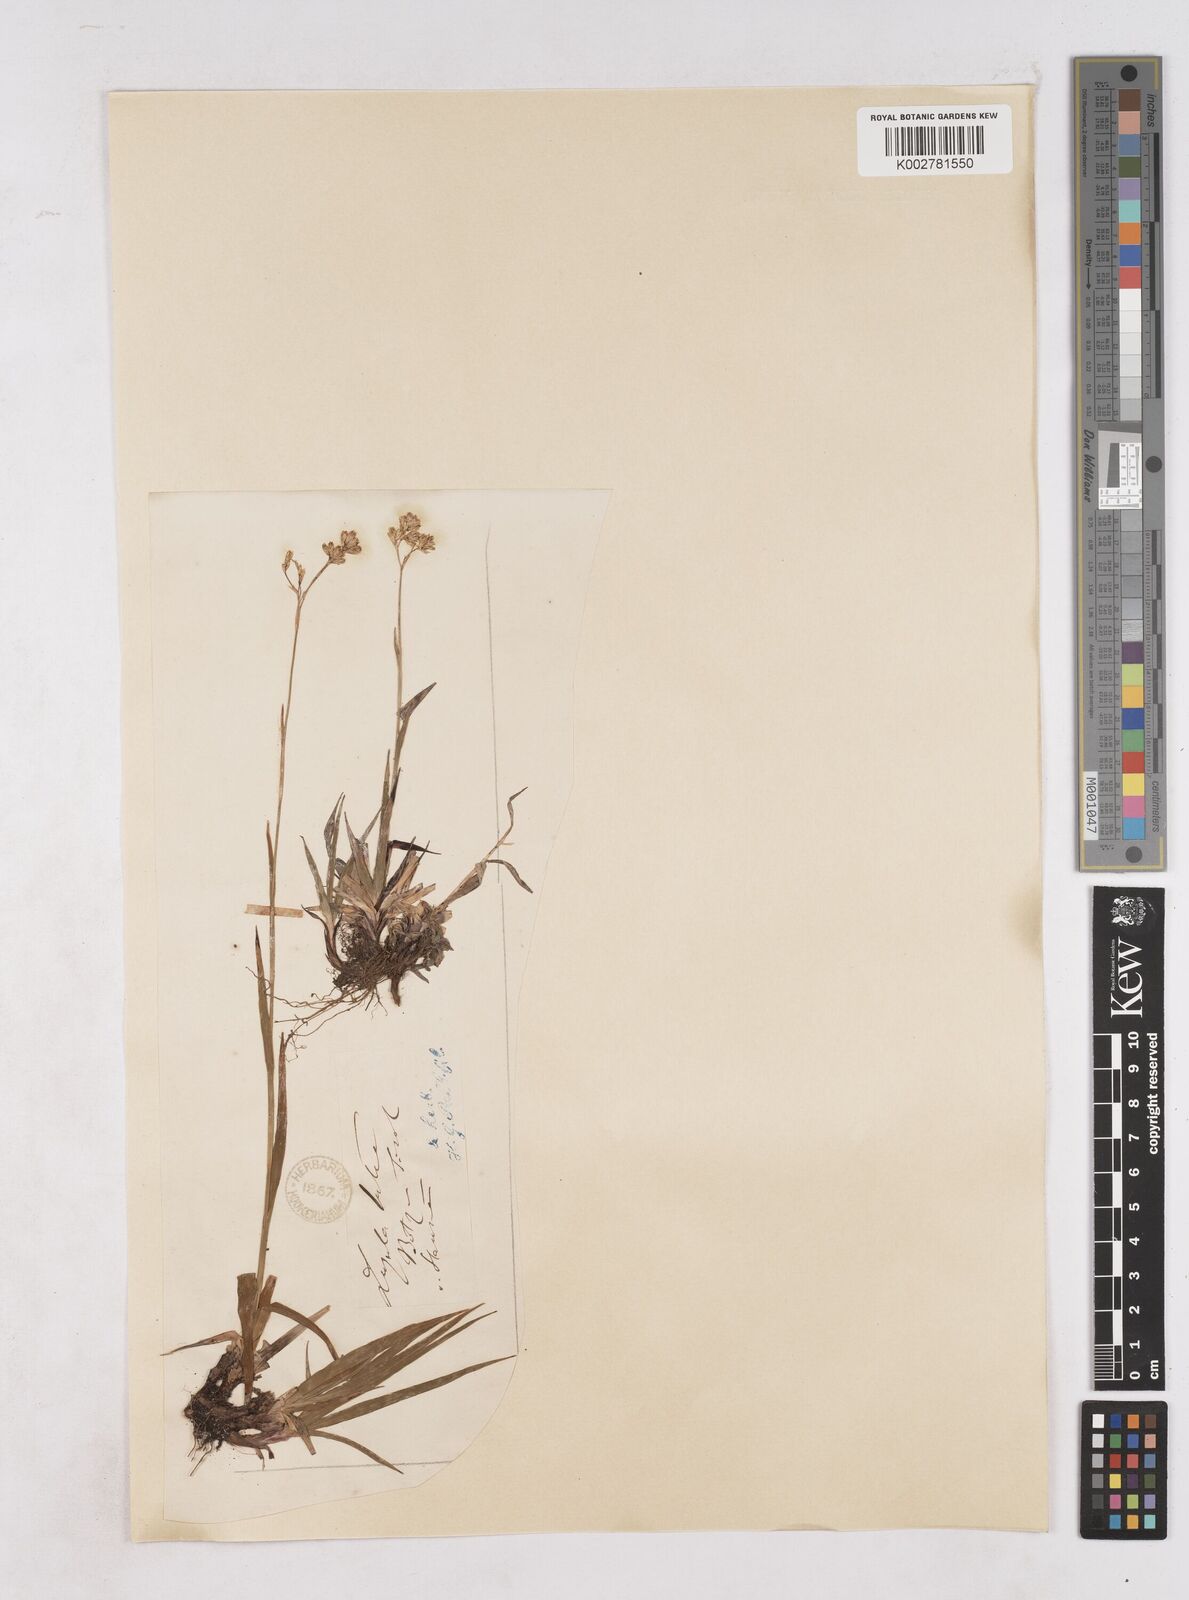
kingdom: Plantae
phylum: Tracheophyta
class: Liliopsida
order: Poales
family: Juncaceae
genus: Luzula
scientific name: Luzula lutea
